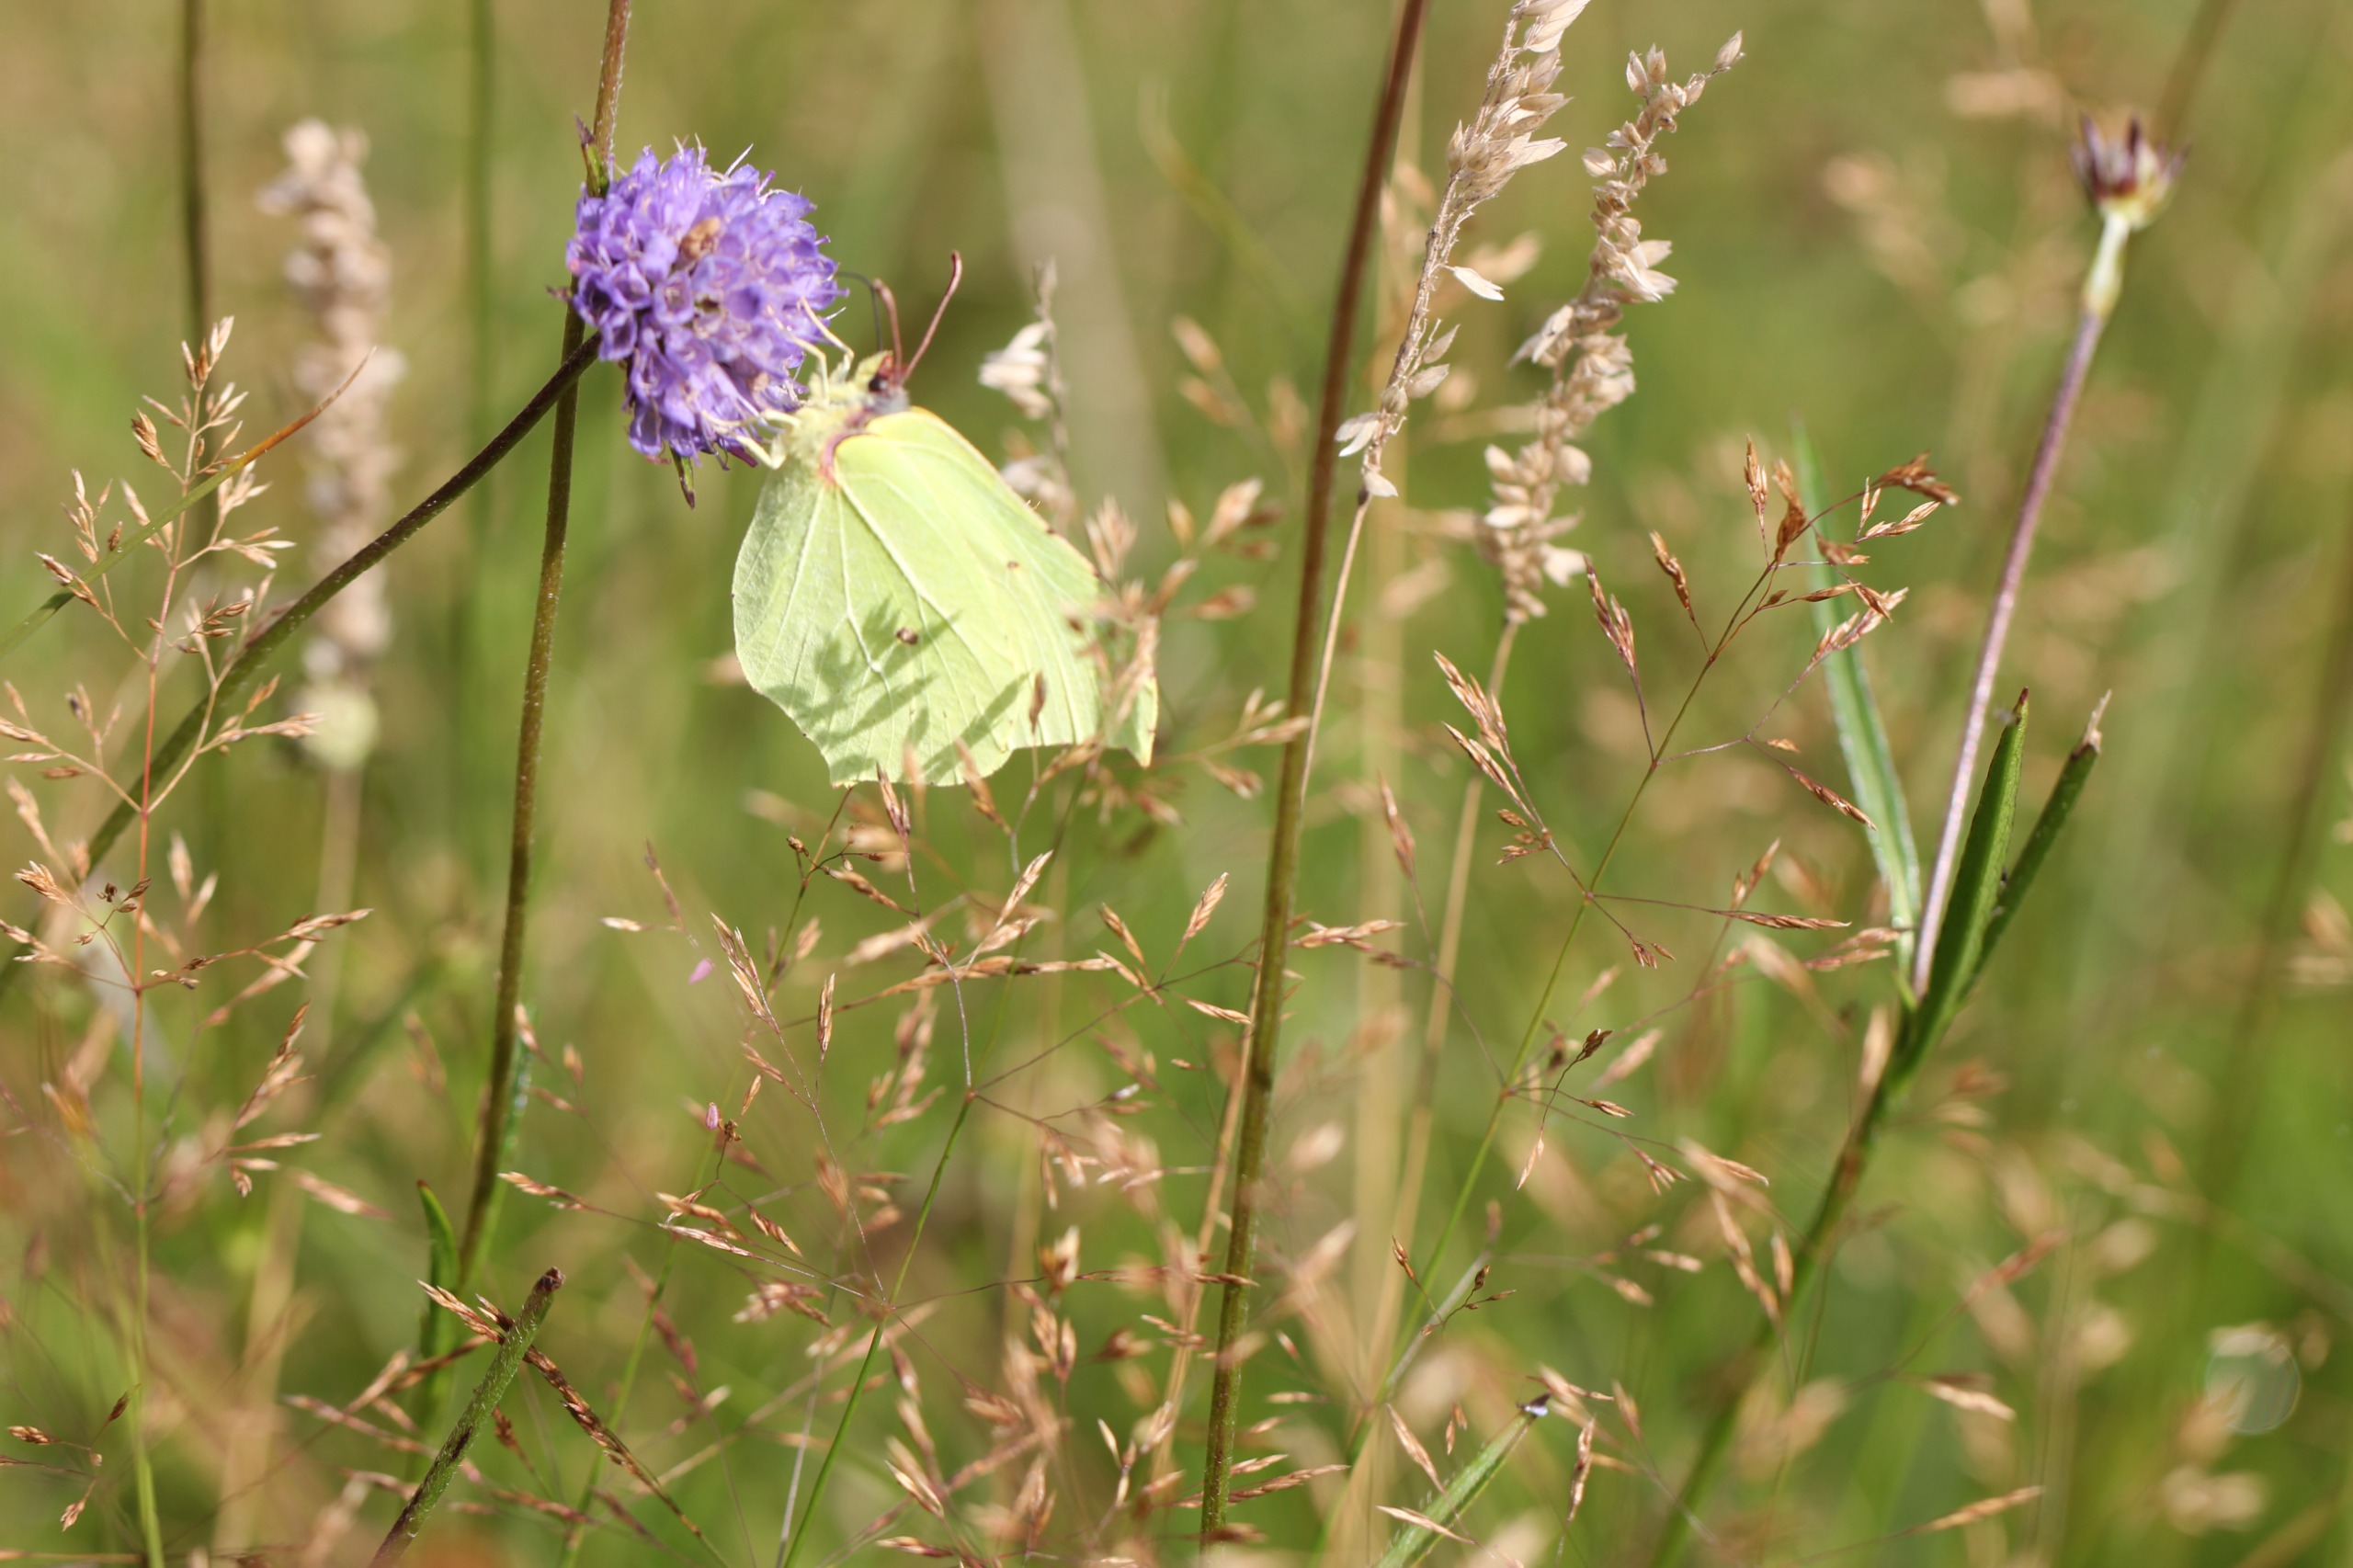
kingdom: Animalia
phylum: Arthropoda
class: Insecta
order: Lepidoptera
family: Pieridae
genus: Gonepteryx
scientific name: Gonepteryx rhamni
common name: Citronsommerfugl
